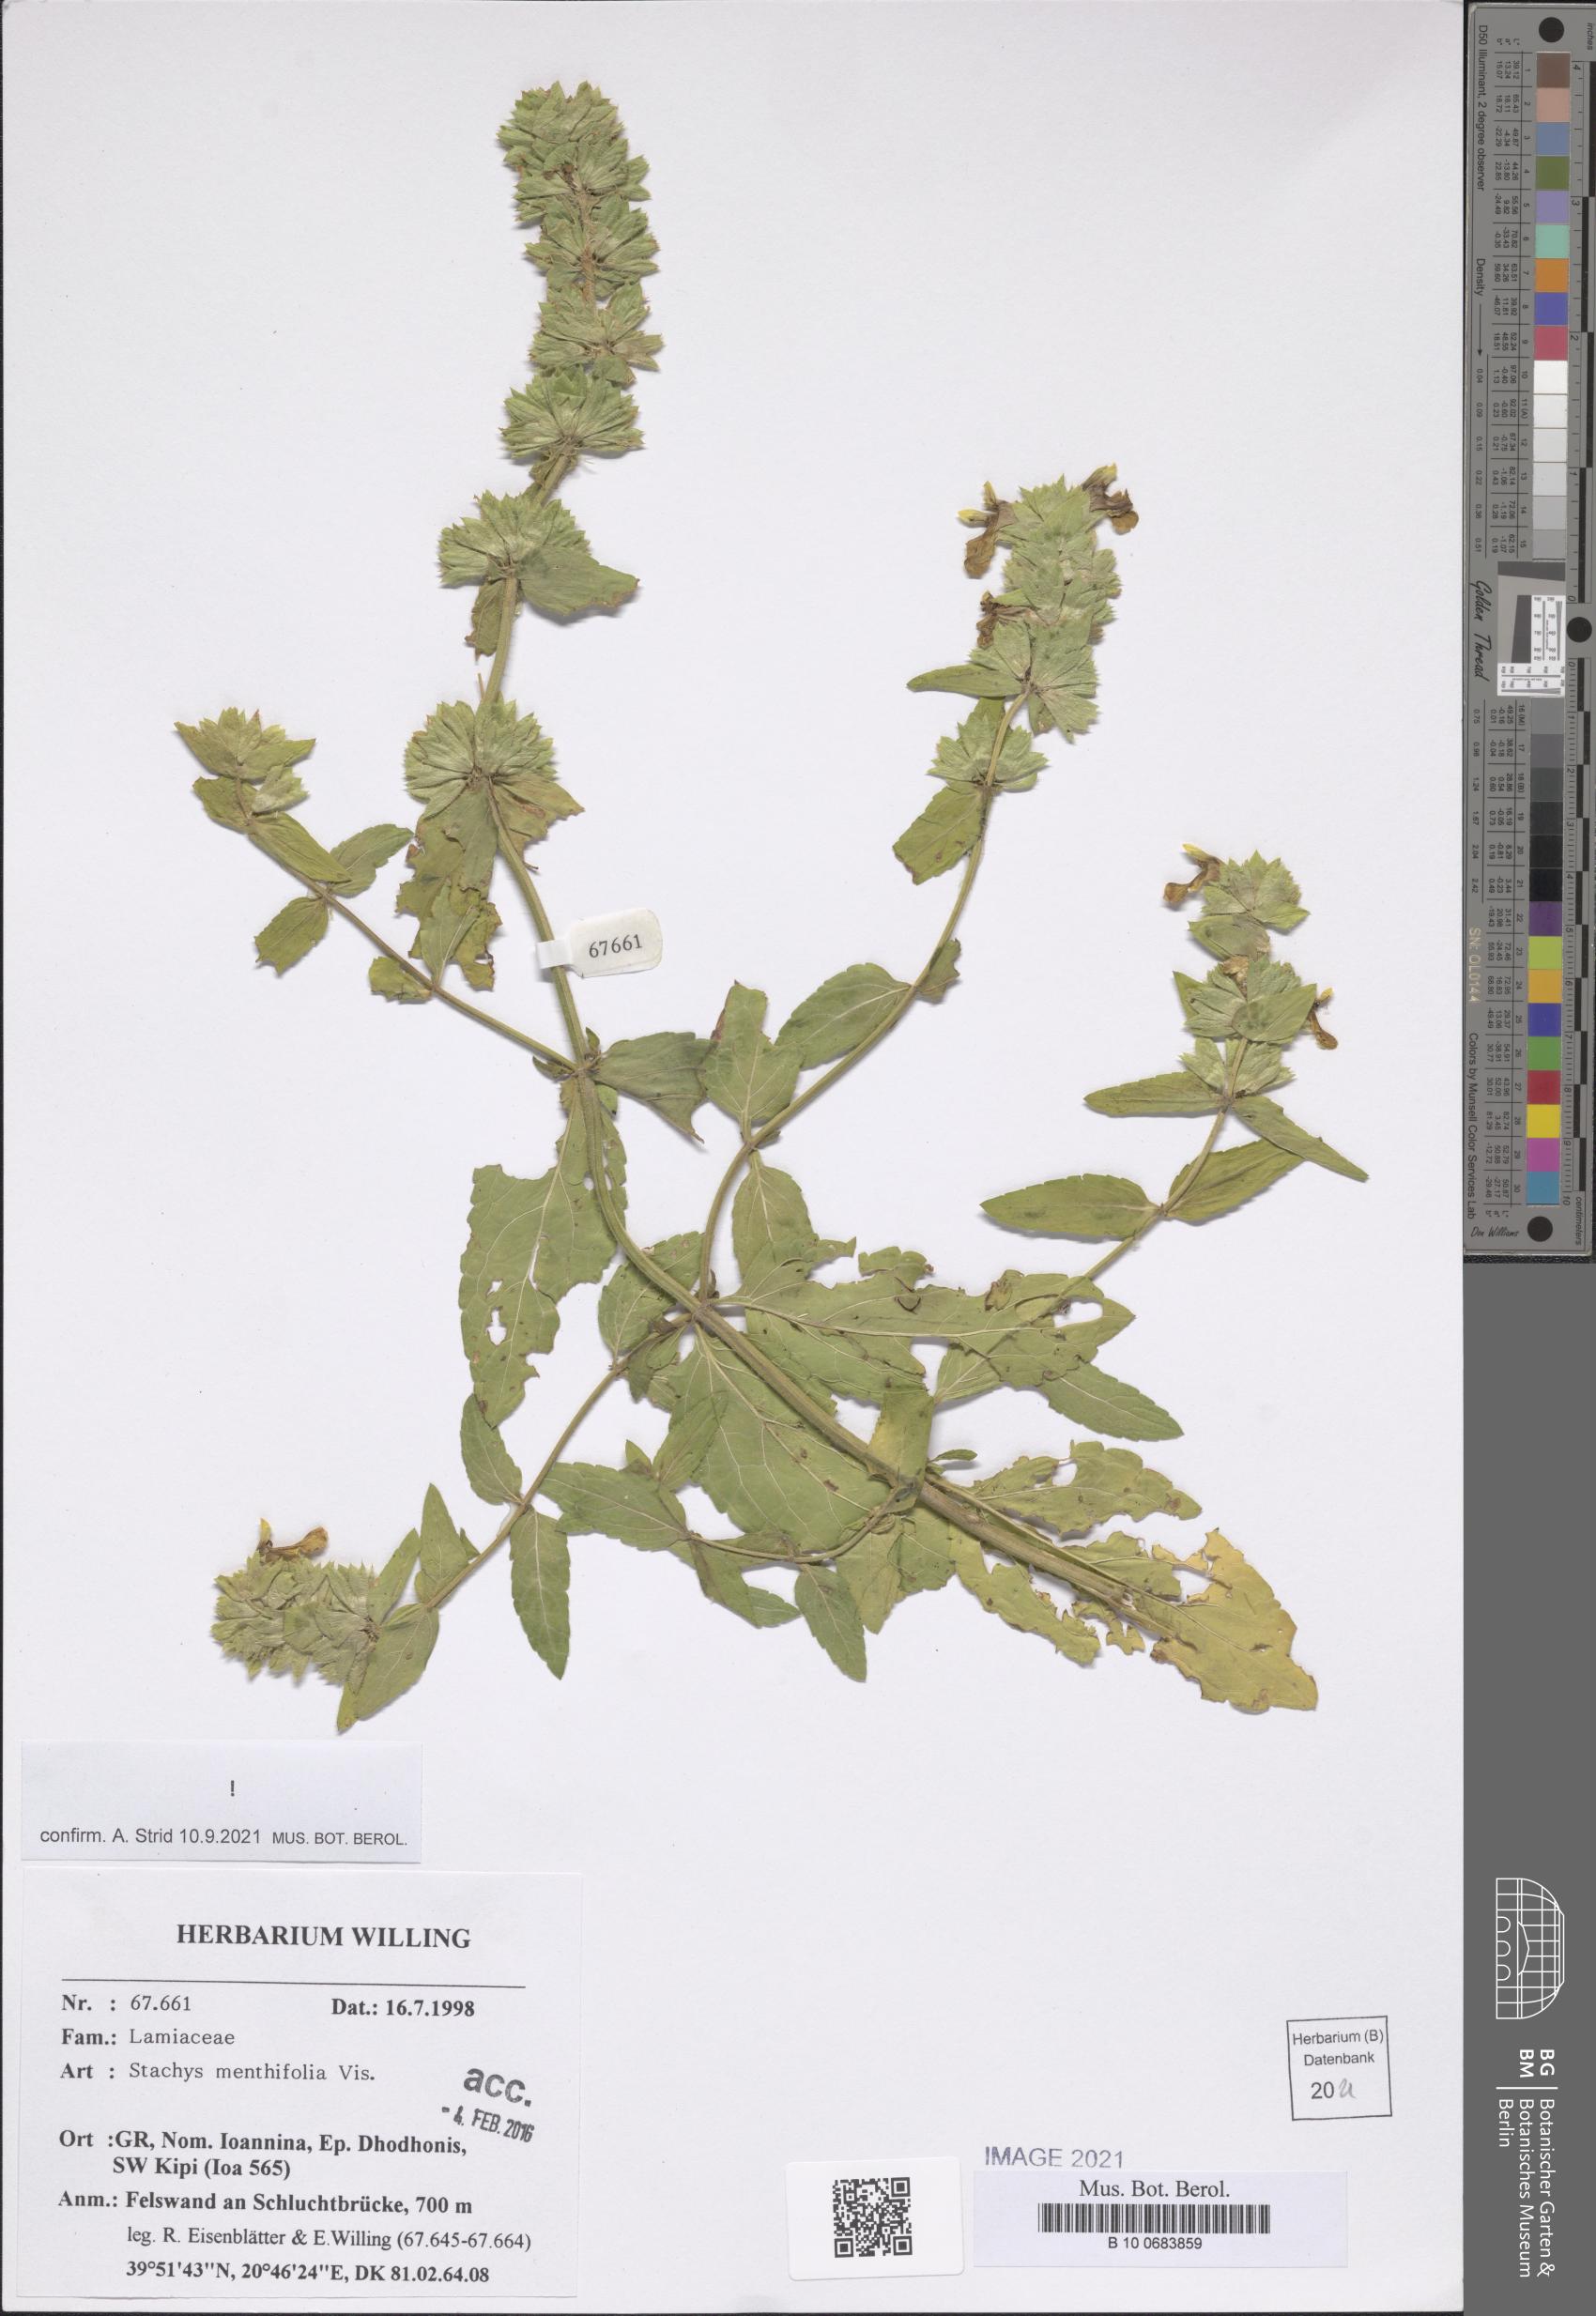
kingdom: Plantae
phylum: Tracheophyta
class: Magnoliopsida
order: Lamiales
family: Lamiaceae
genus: Stachys
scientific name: Stachys menthifolia
